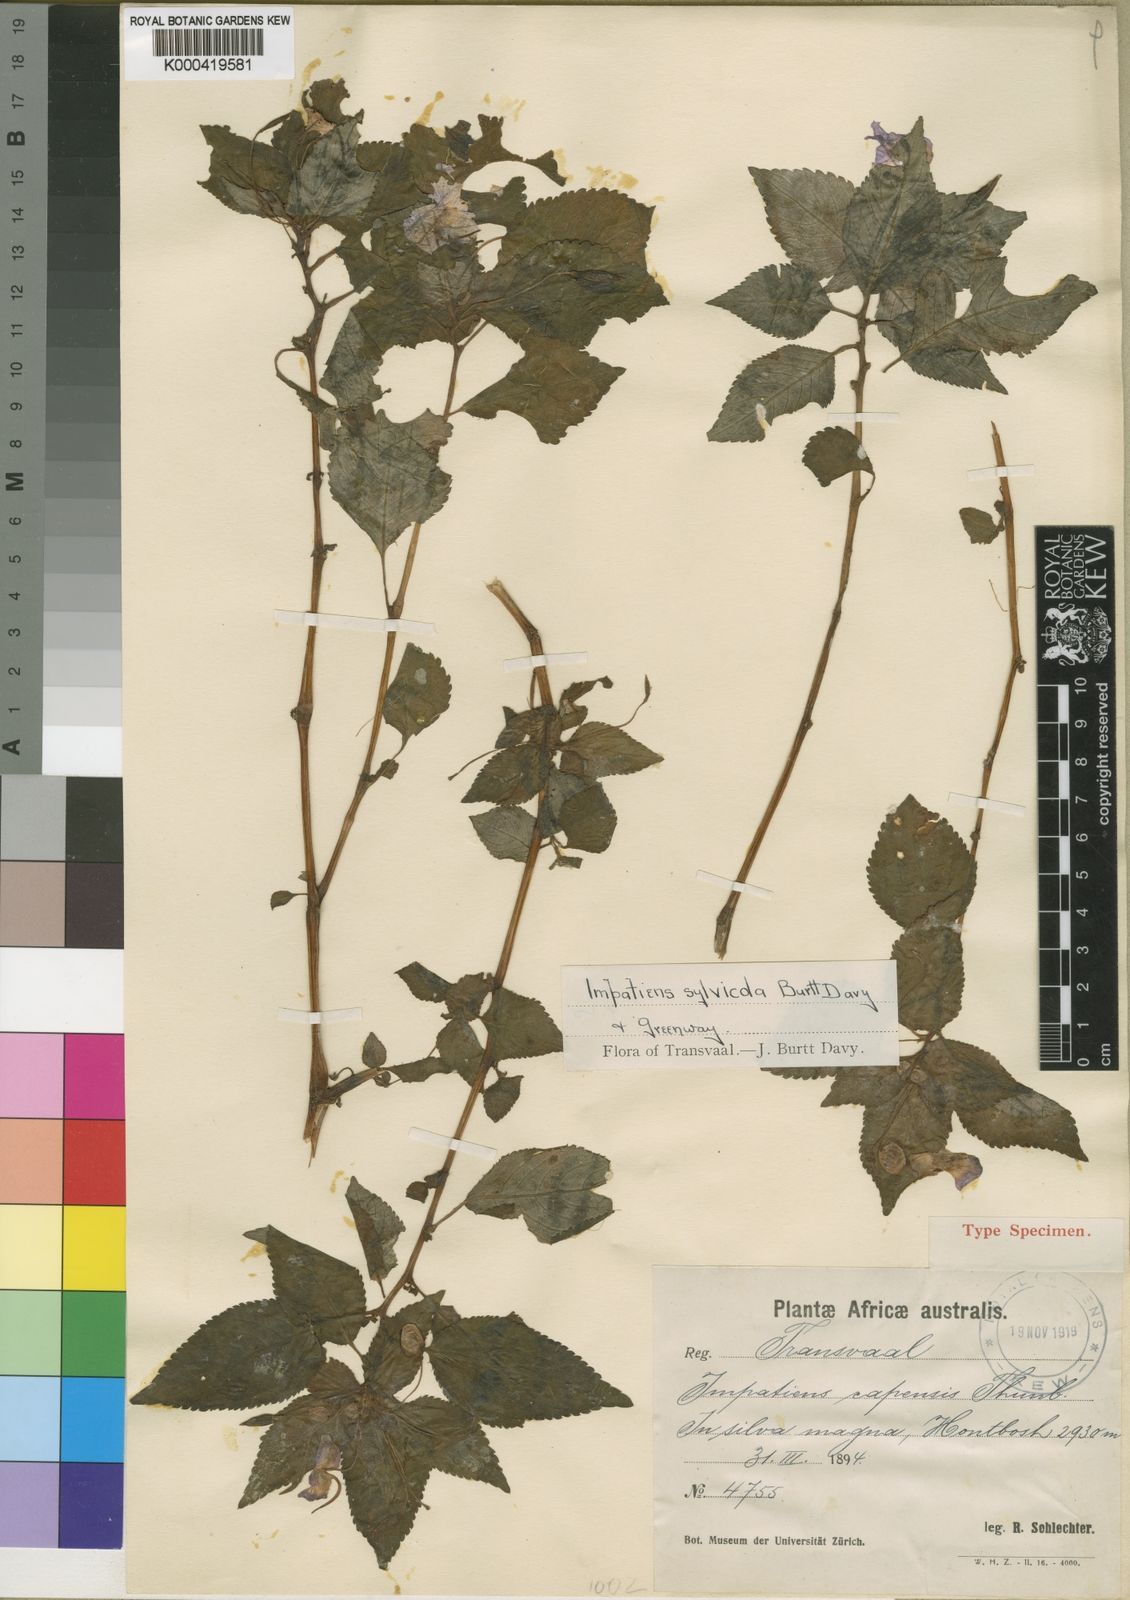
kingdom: Plantae
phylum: Tracheophyta
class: Magnoliopsida
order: Ericales
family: Balsaminaceae
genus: Impatiens
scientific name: Impatiens sylvicola
